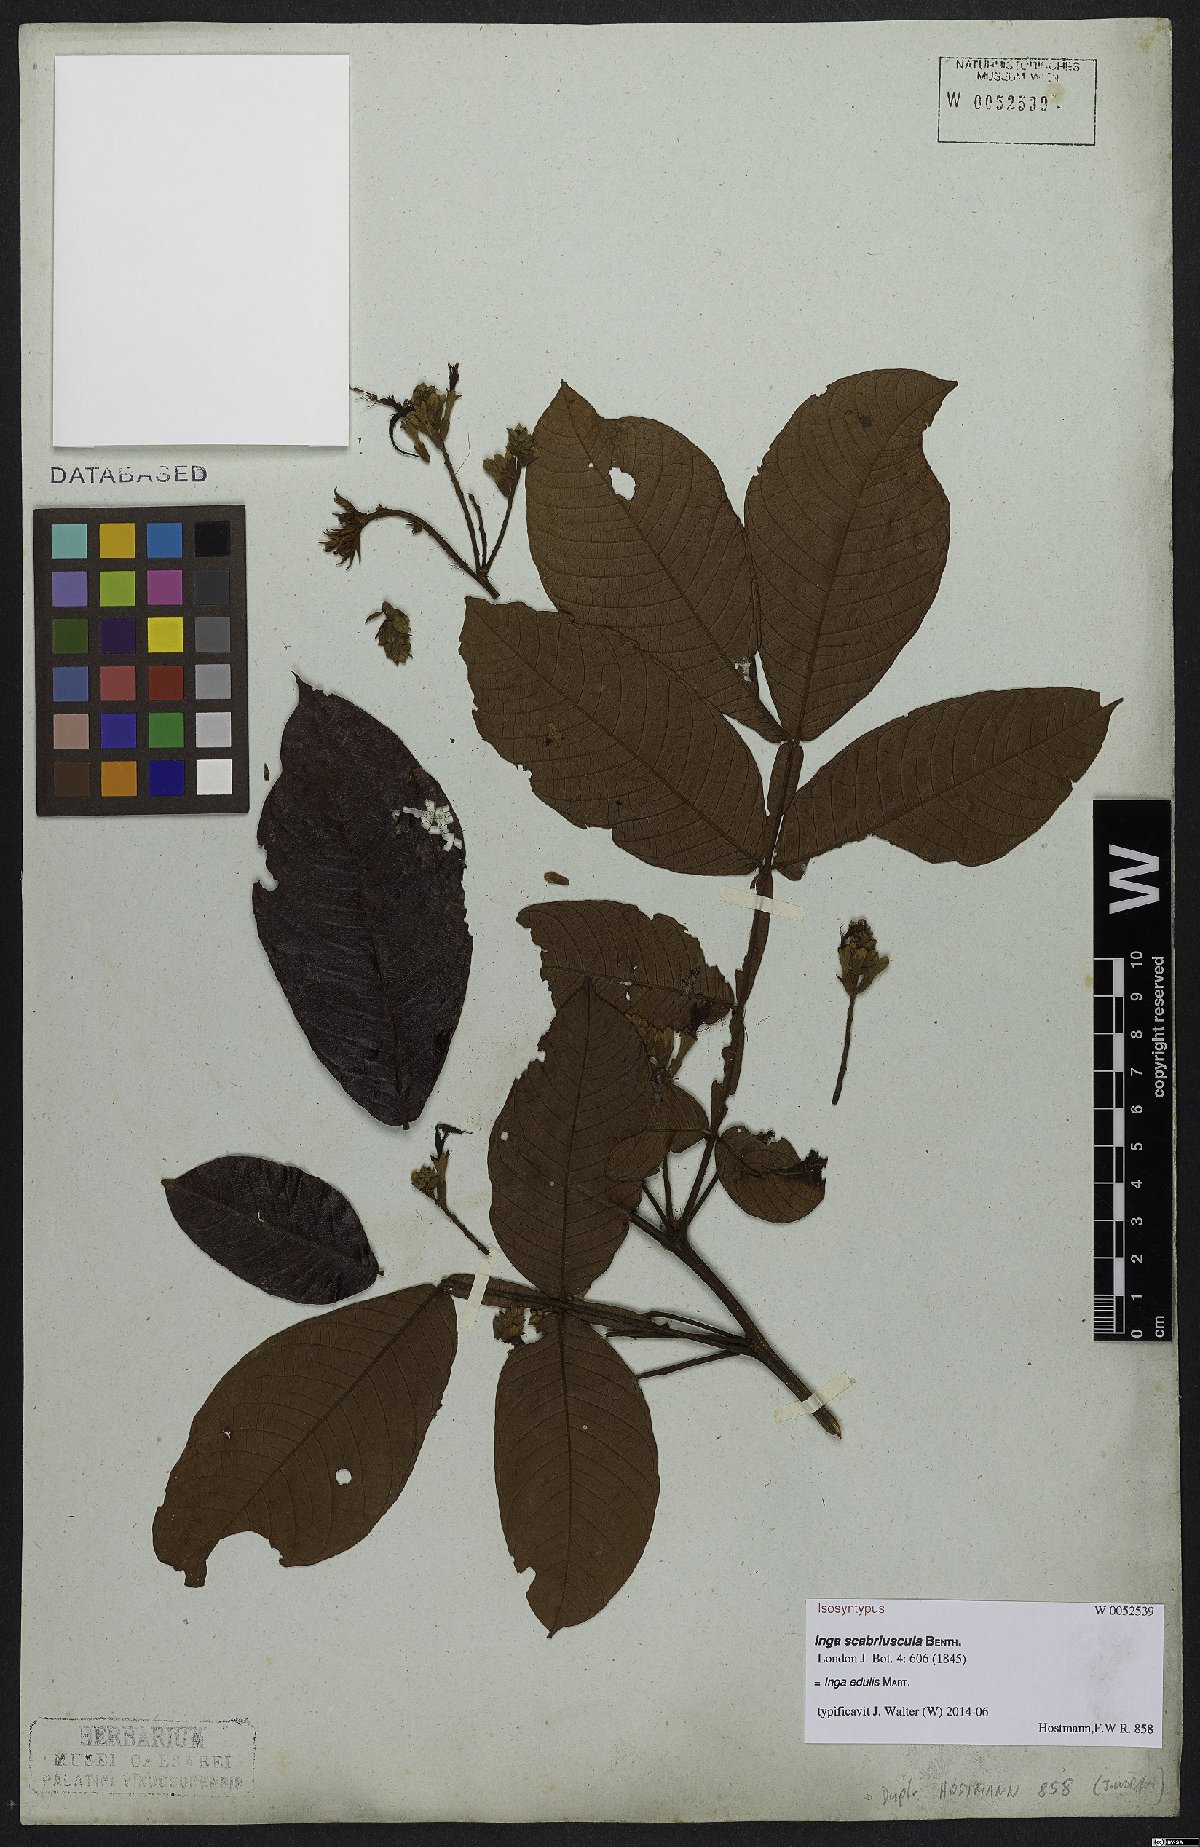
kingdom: Plantae
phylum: Tracheophyta
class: Magnoliopsida
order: Fabales
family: Fabaceae
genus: Inga
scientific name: Inga edulis
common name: Ice cream bean
